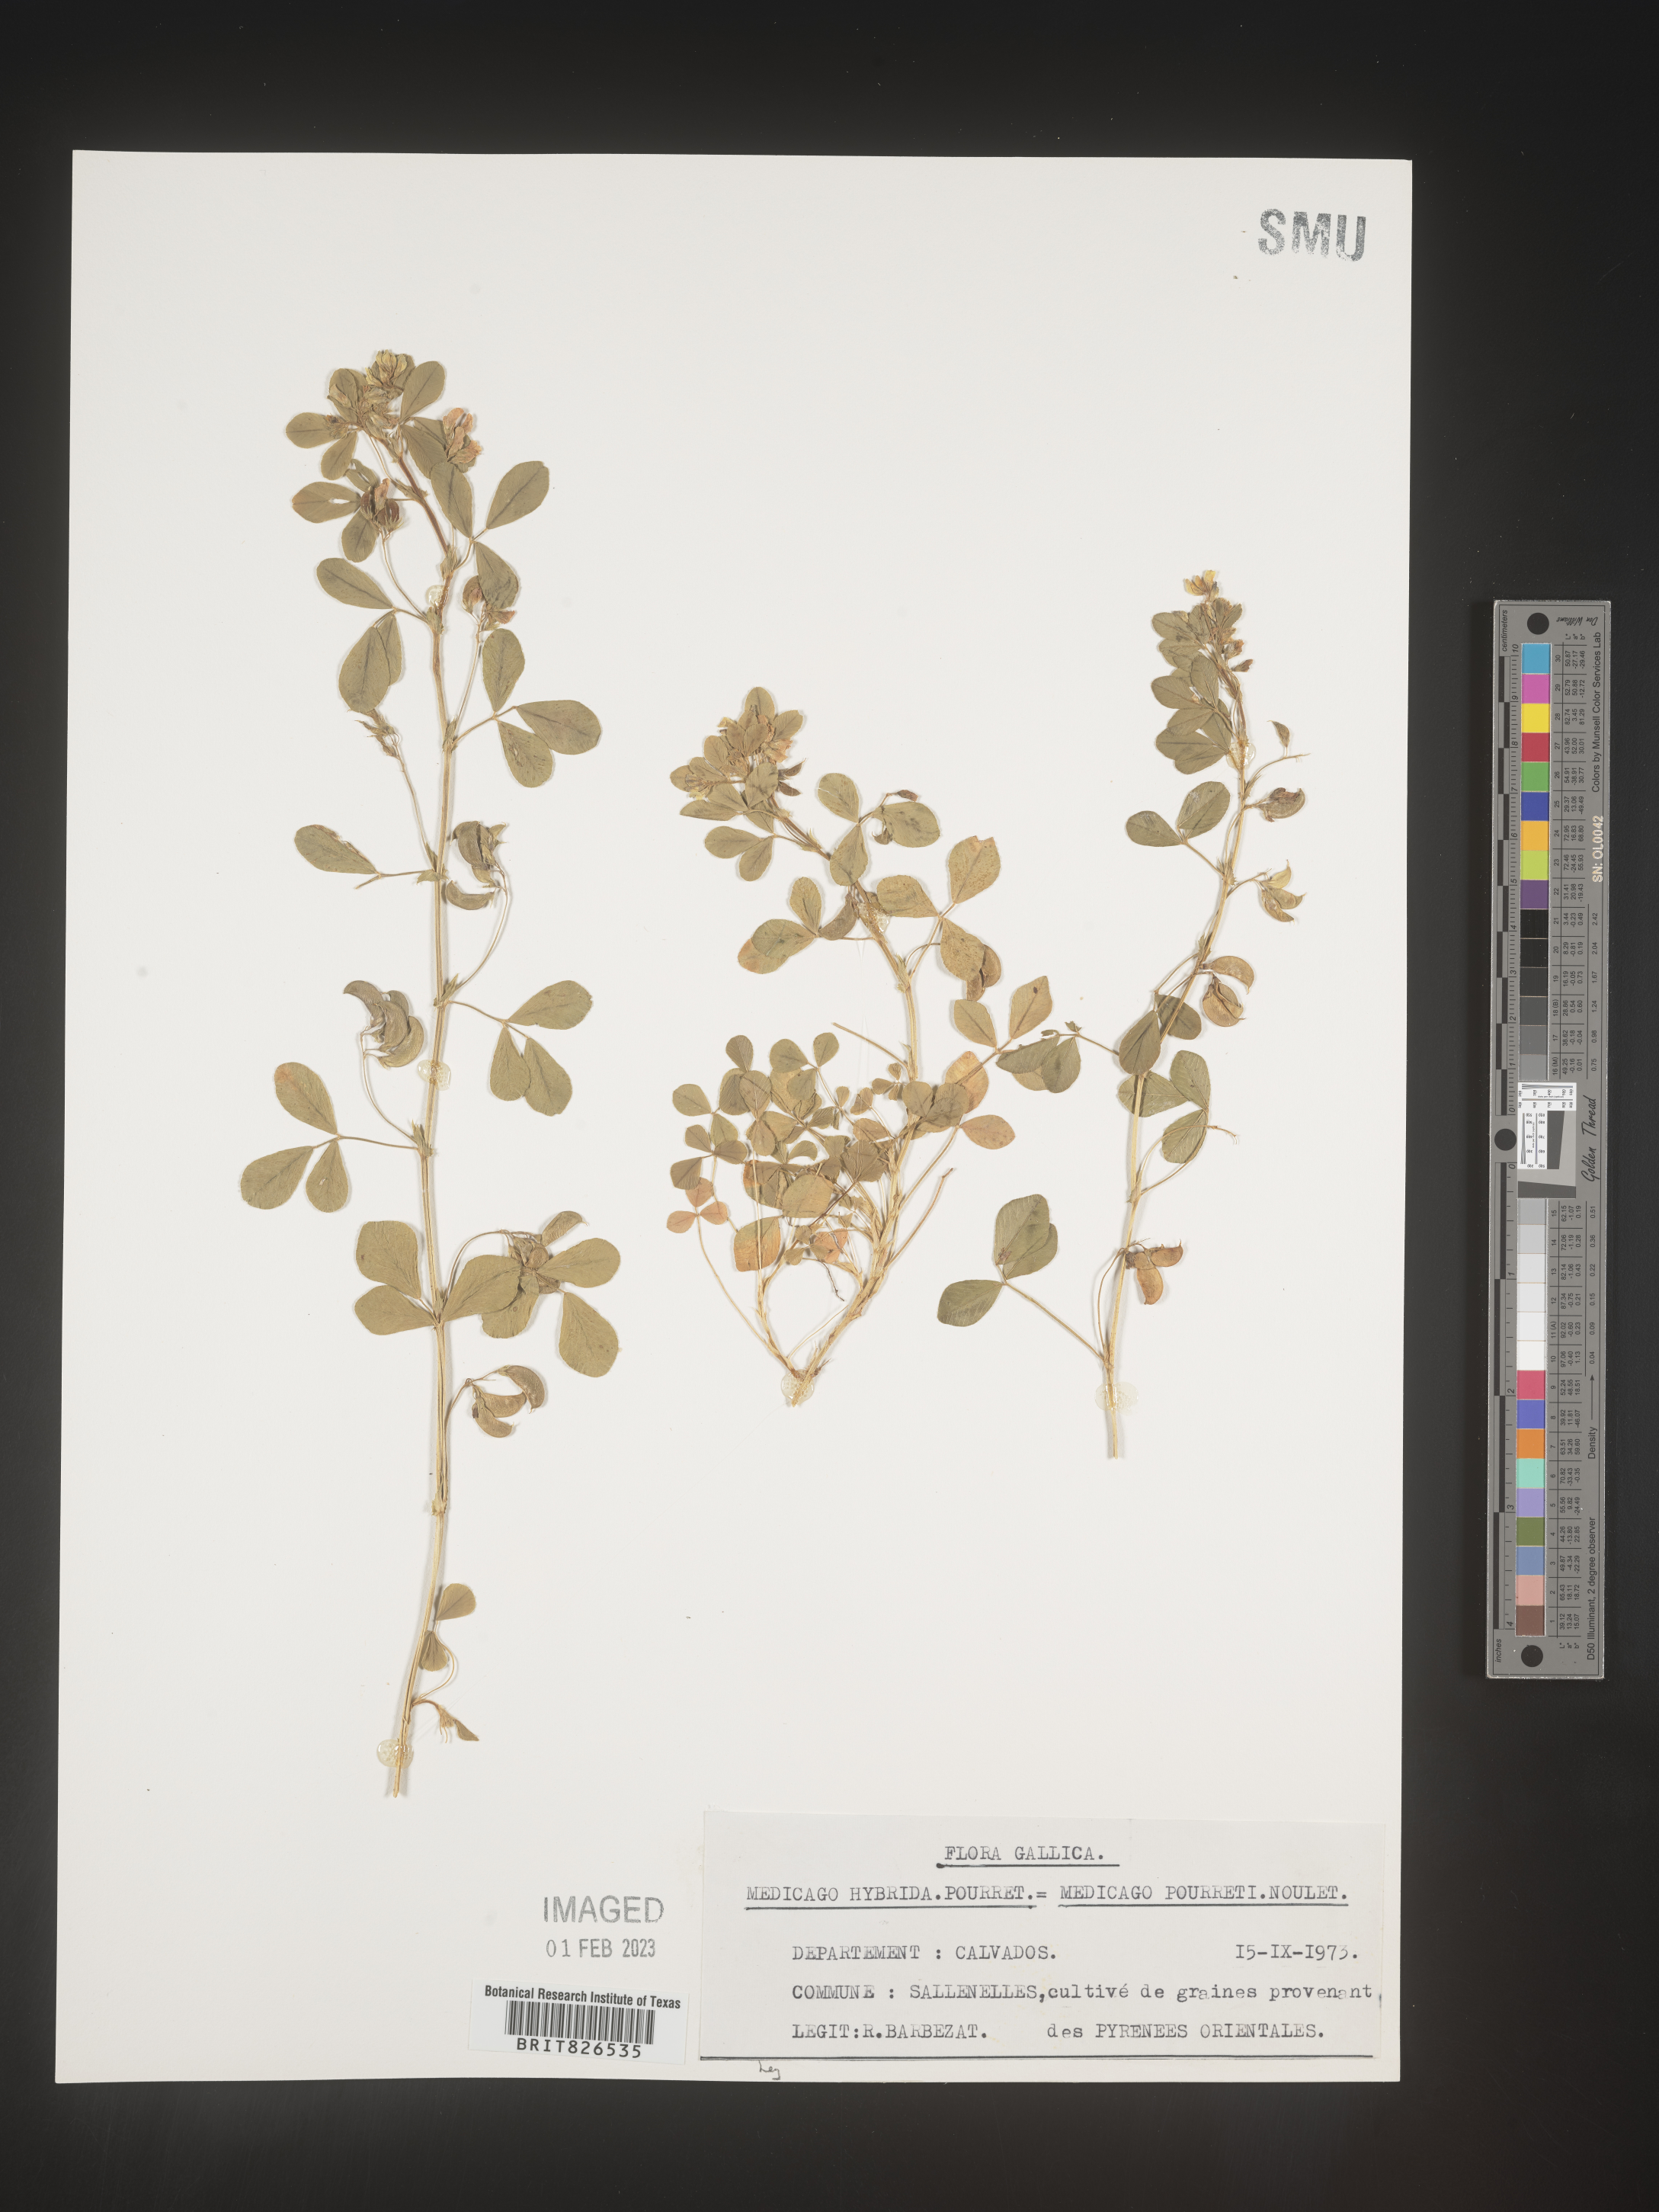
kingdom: Plantae
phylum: Tracheophyta
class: Magnoliopsida
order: Fabales
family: Fabaceae
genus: Medicago
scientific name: Medicago
